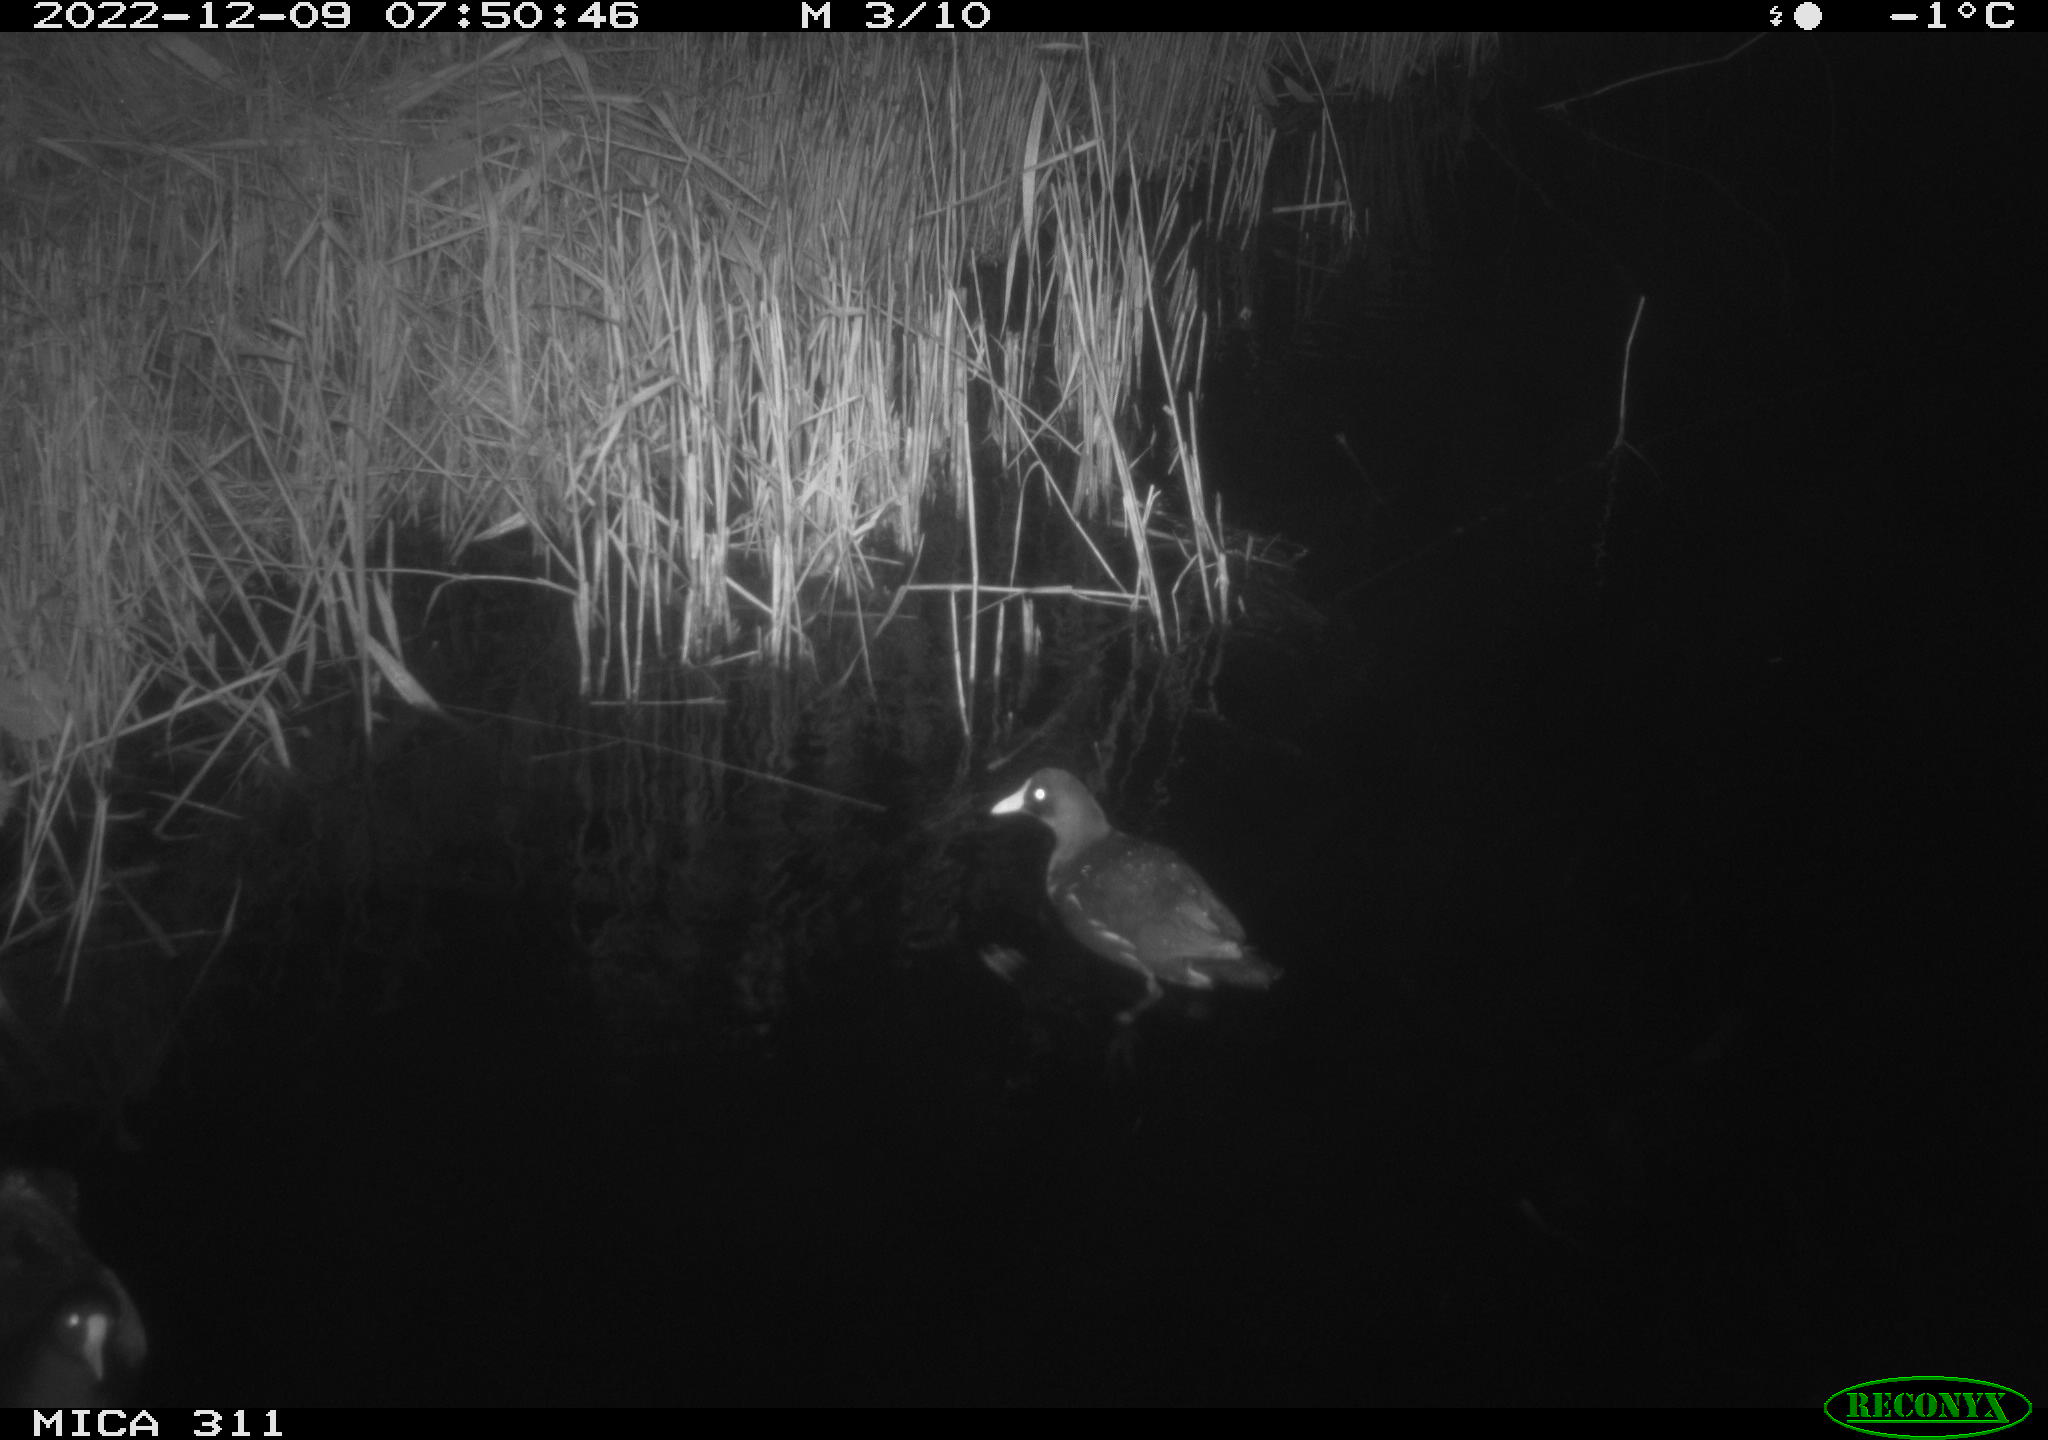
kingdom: Animalia
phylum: Chordata
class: Aves
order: Gruiformes
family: Rallidae
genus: Gallinula
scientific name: Gallinula chloropus
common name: Common moorhen
